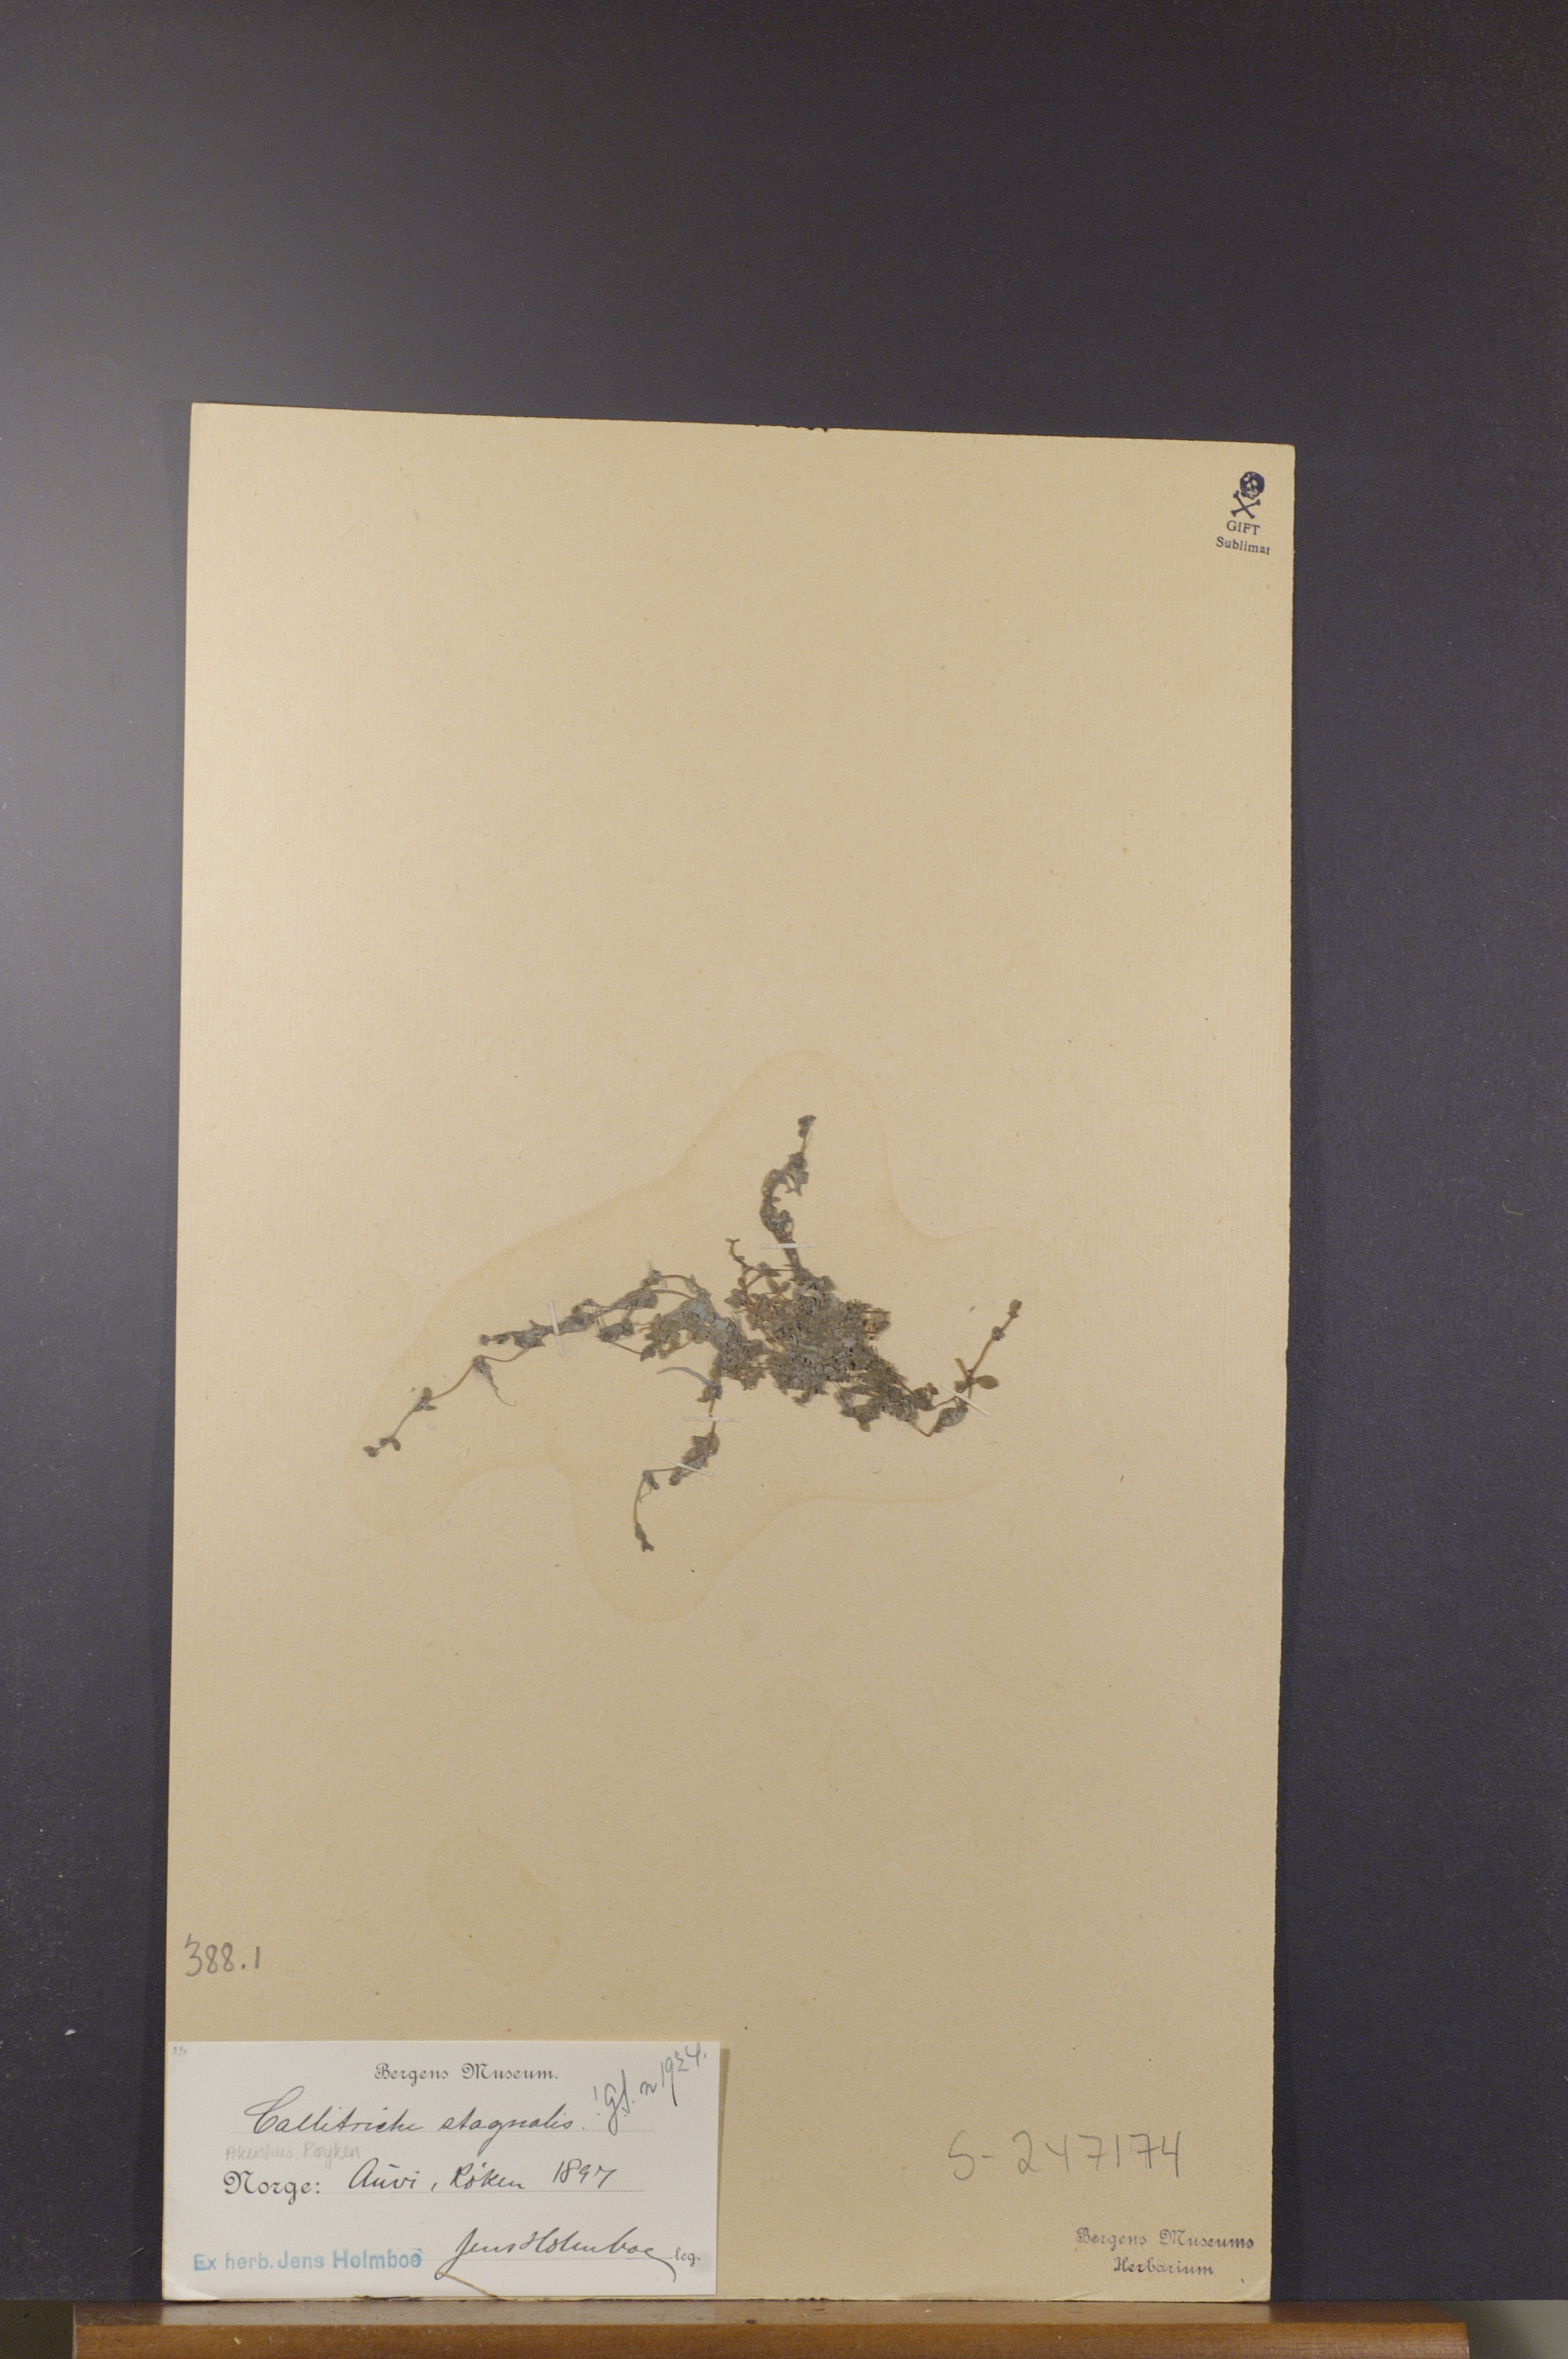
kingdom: Plantae
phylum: Tracheophyta
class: Magnoliopsida
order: Lamiales
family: Plantaginaceae
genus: Callitriche
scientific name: Callitriche stagnalis
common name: Common water-starwort
